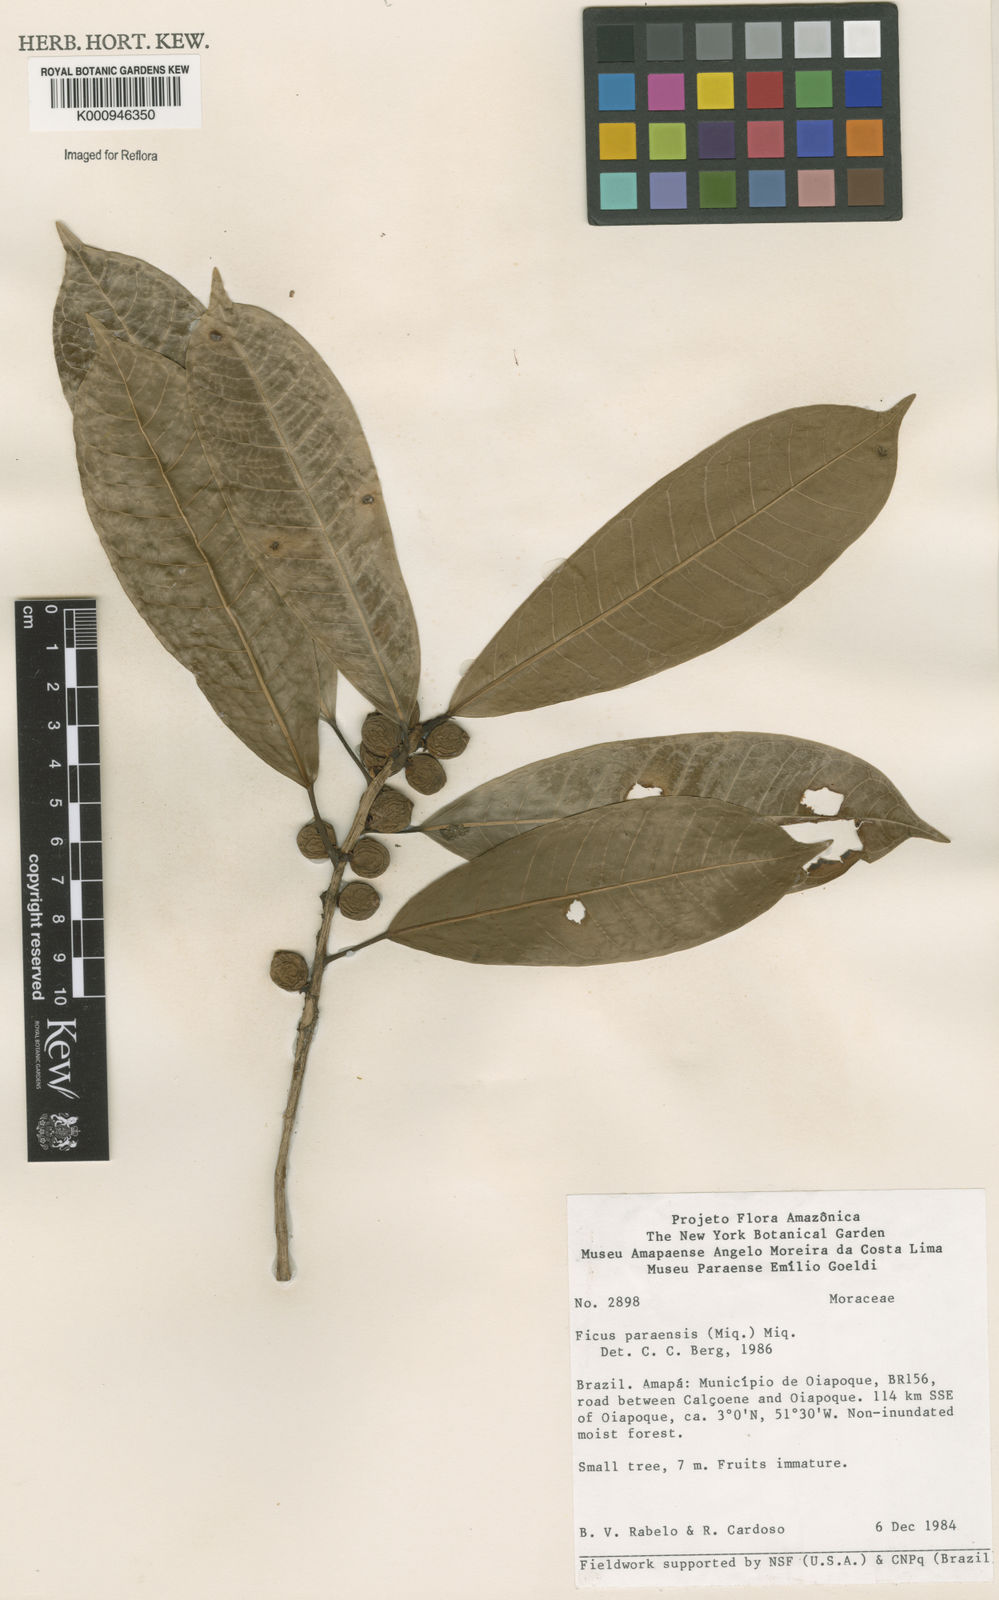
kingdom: Plantae
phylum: Tracheophyta
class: Magnoliopsida
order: Rosales
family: Moraceae
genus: Ficus
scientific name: Ficus paraensis
